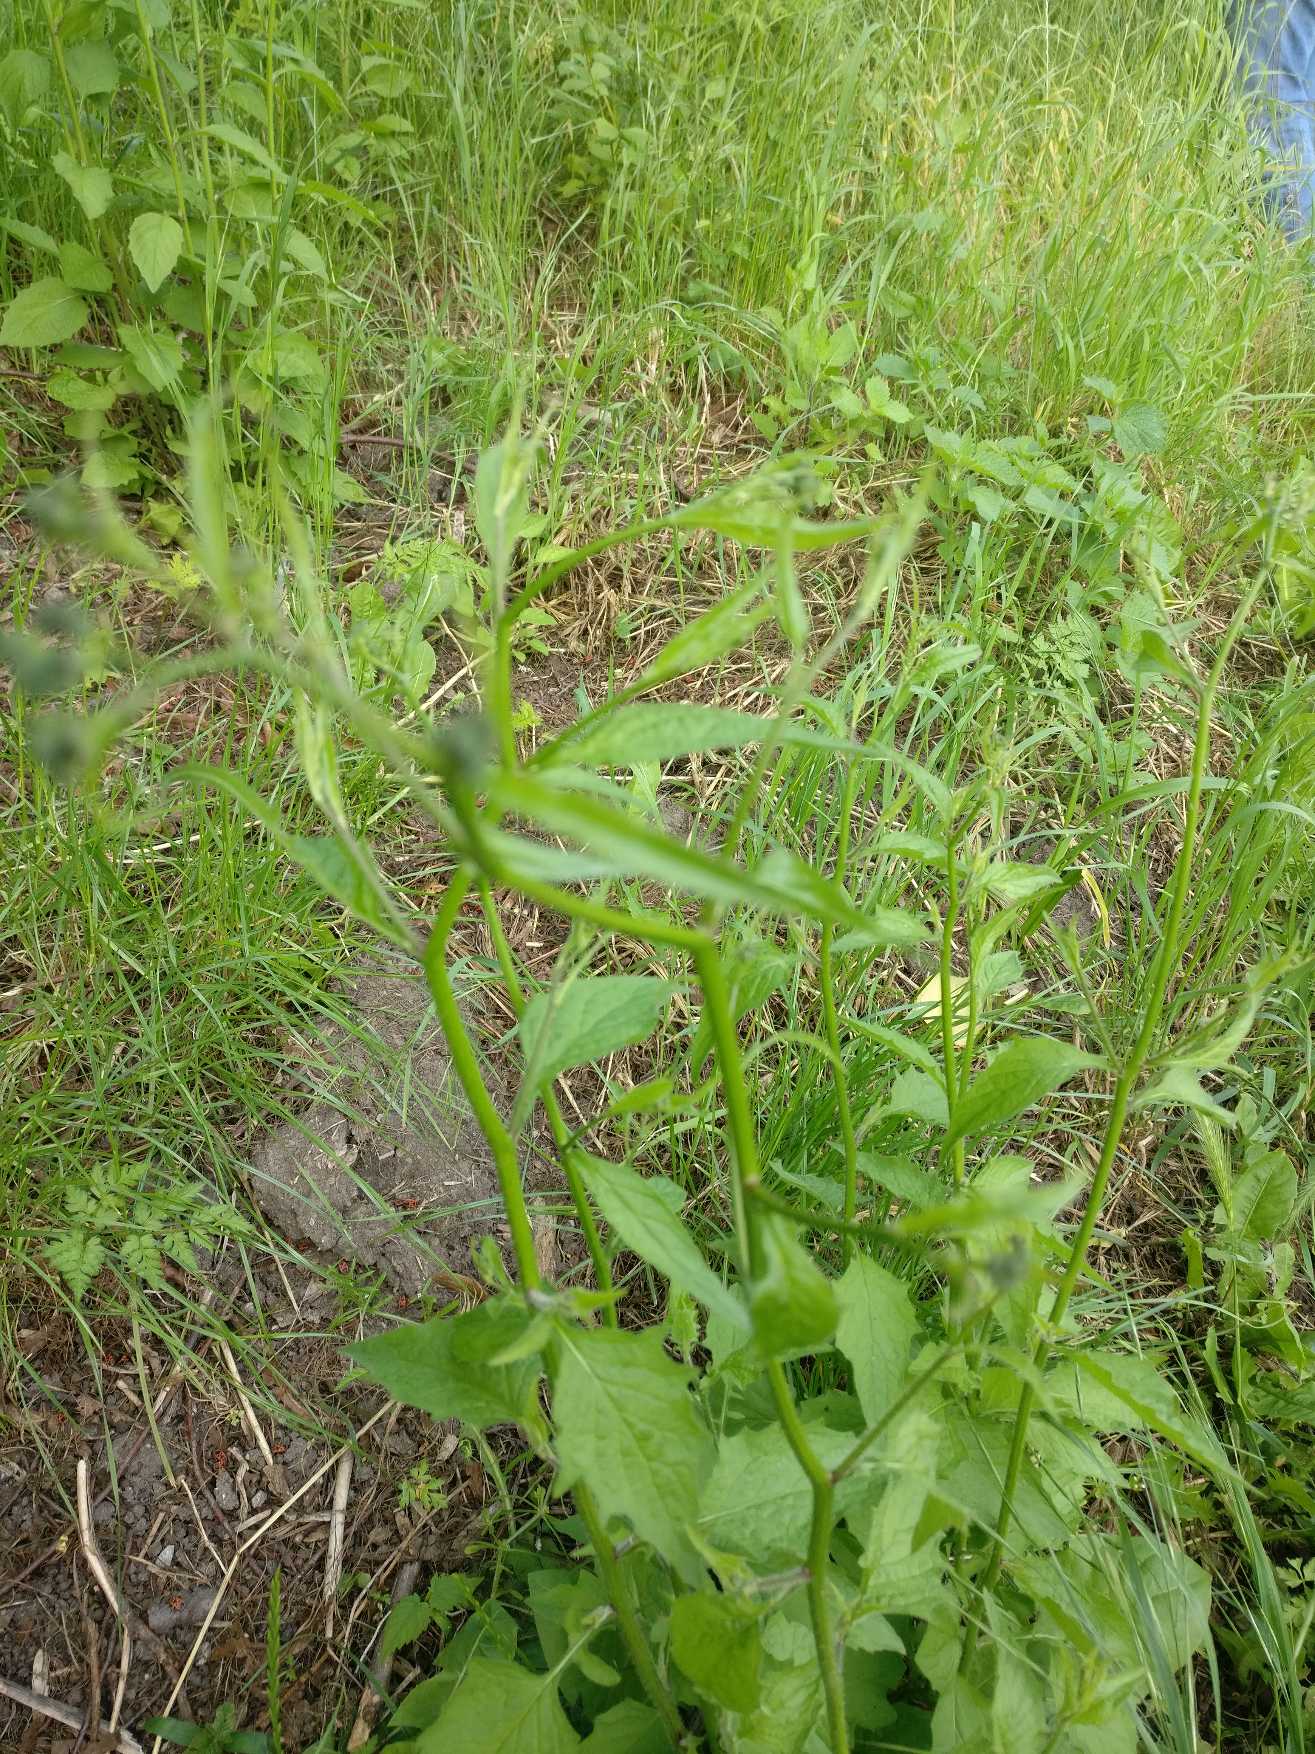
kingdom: Plantae
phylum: Tracheophyta
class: Magnoliopsida
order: Asterales
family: Asteraceae
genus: Lapsana
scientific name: Lapsana communis
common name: Haremad
